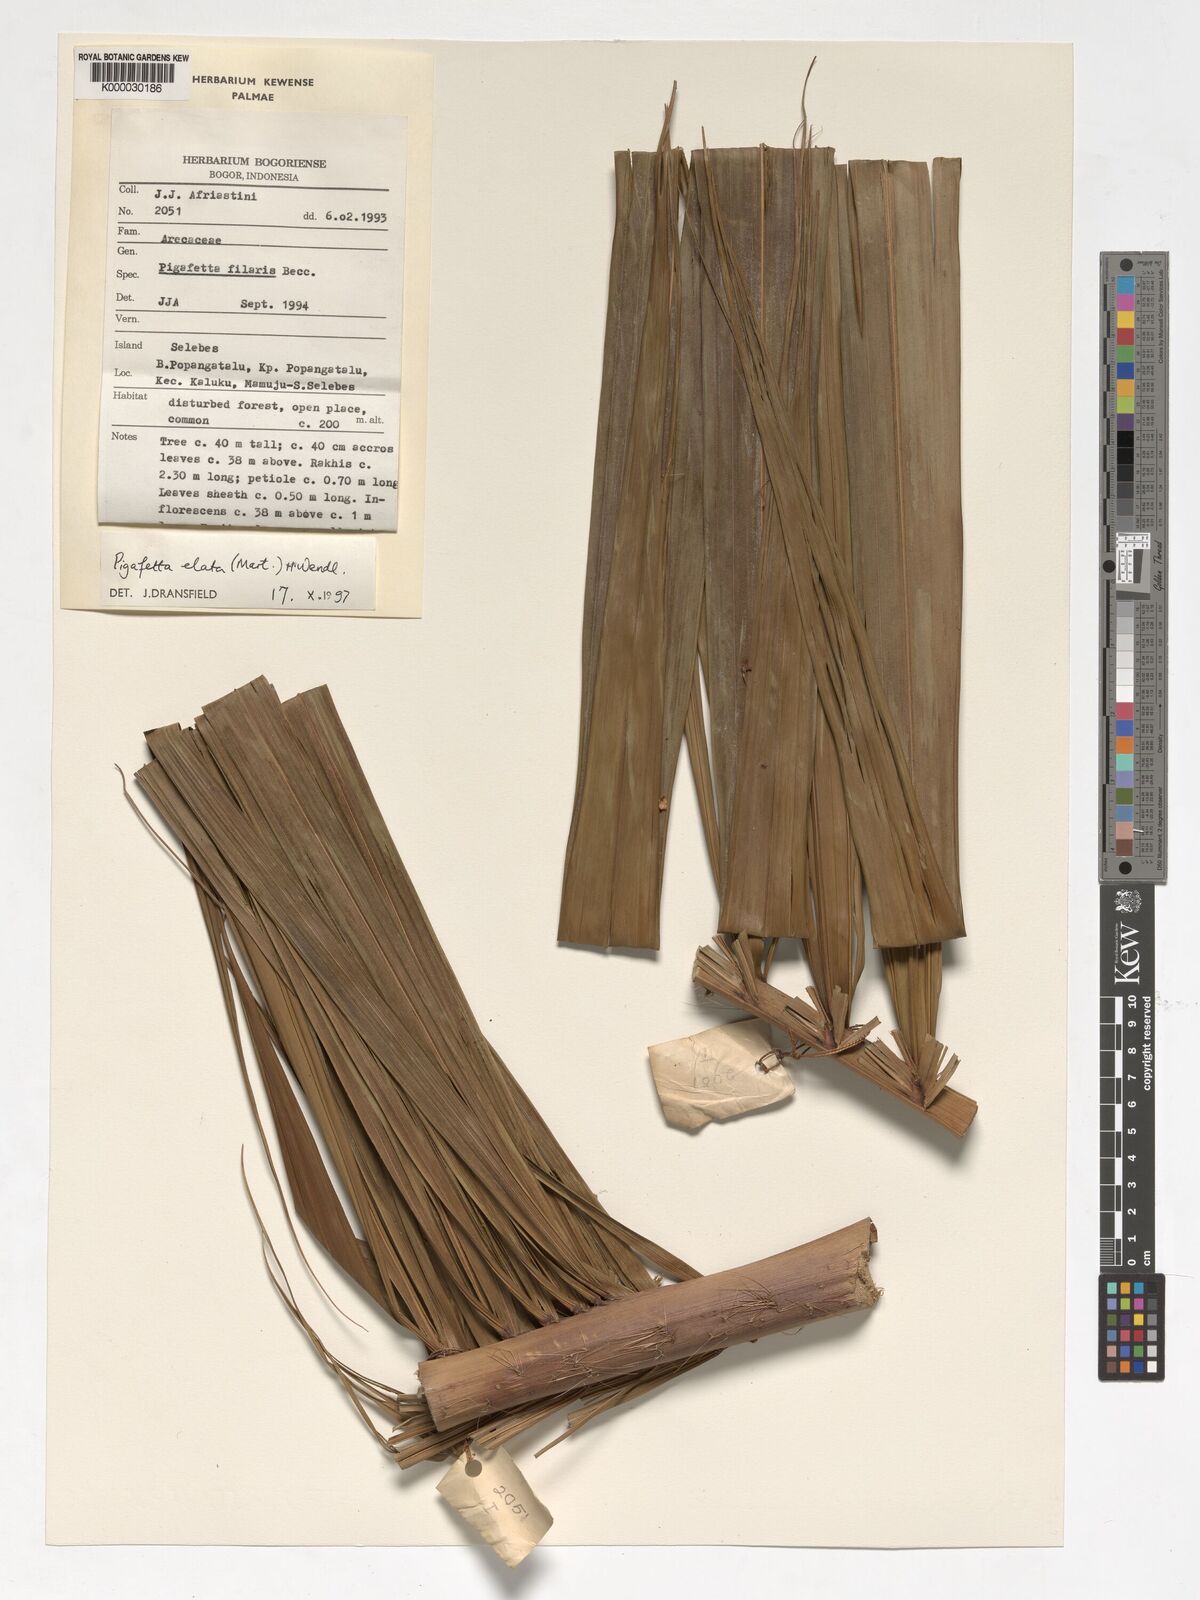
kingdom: Plantae
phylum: Tracheophyta
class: Liliopsida
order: Arecales
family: Arecaceae
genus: Pigafetta
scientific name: Pigafetta elata
